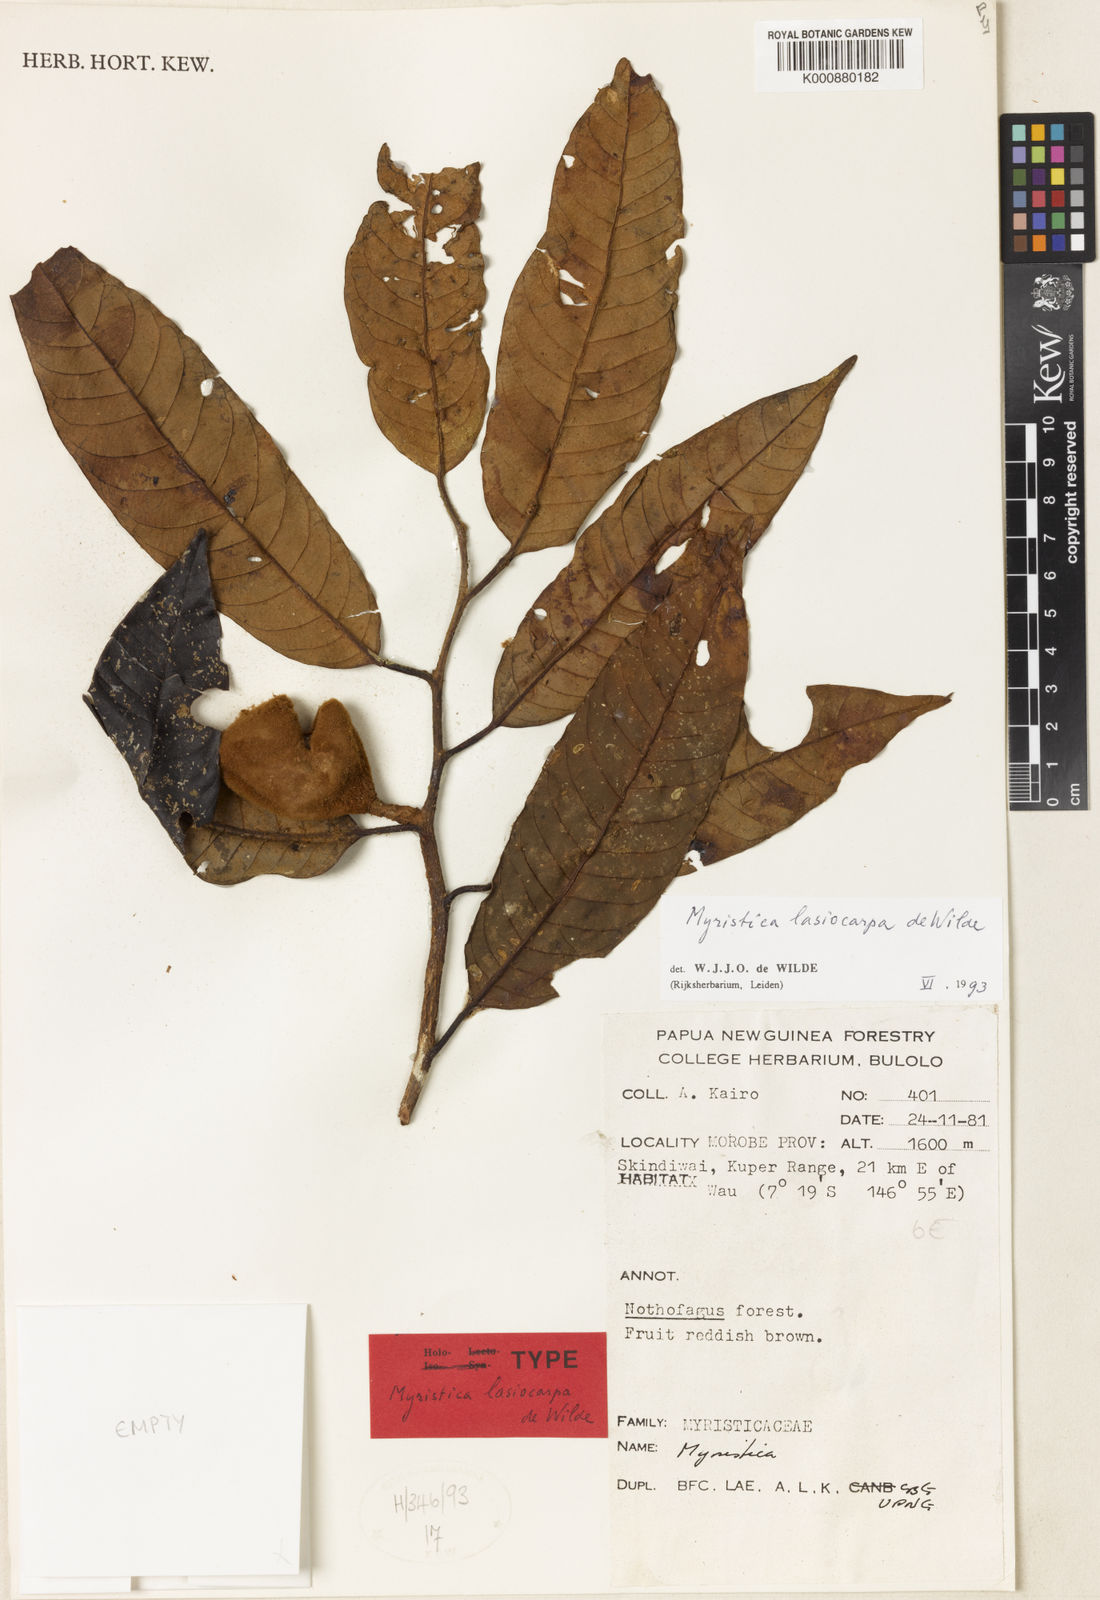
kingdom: Plantae
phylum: Tracheophyta
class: Magnoliopsida
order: Magnoliales
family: Myristicaceae
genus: Myristica
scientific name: Myristica lasiocarpa
